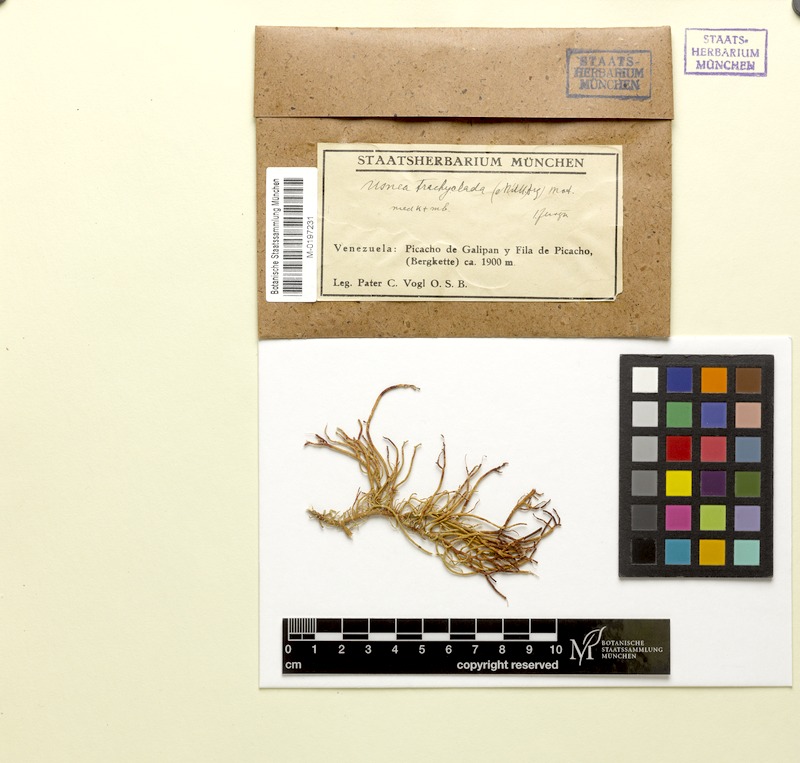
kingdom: Fungi
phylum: Ascomycota
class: Lecanoromycetes
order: Lecanorales
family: Parmeliaceae
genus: Usnea
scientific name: Usnea
